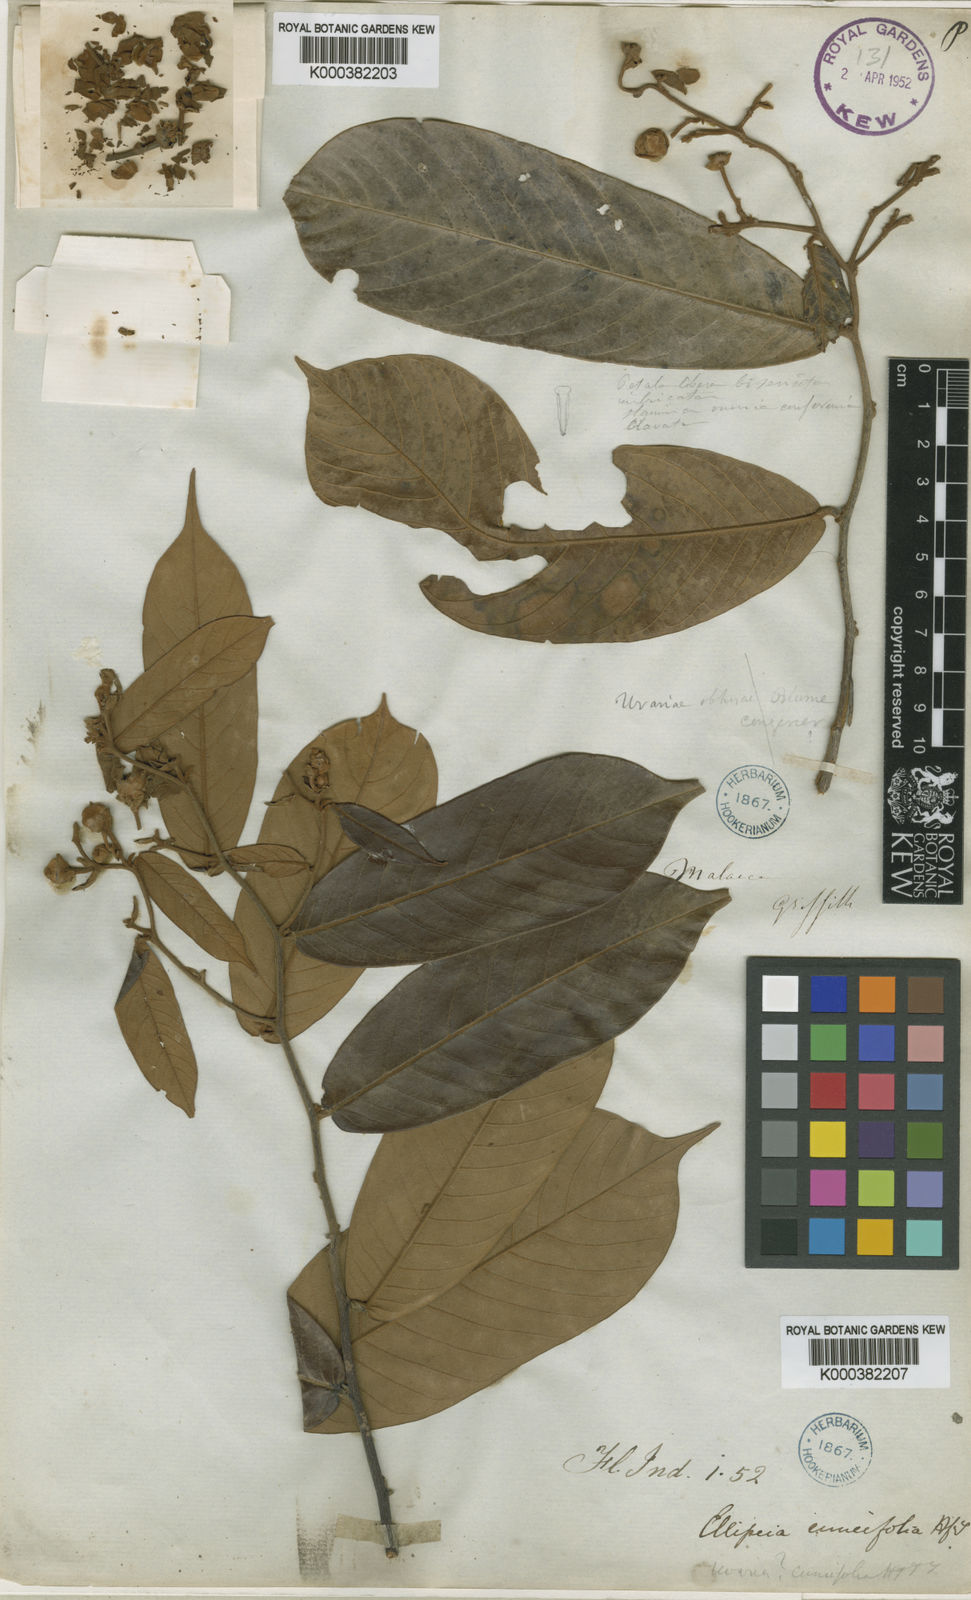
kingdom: Plantae
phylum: Tracheophyta
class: Magnoliopsida
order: Magnoliales
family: Annonaceae
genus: Uvaria
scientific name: Uvaria cuneifolia
